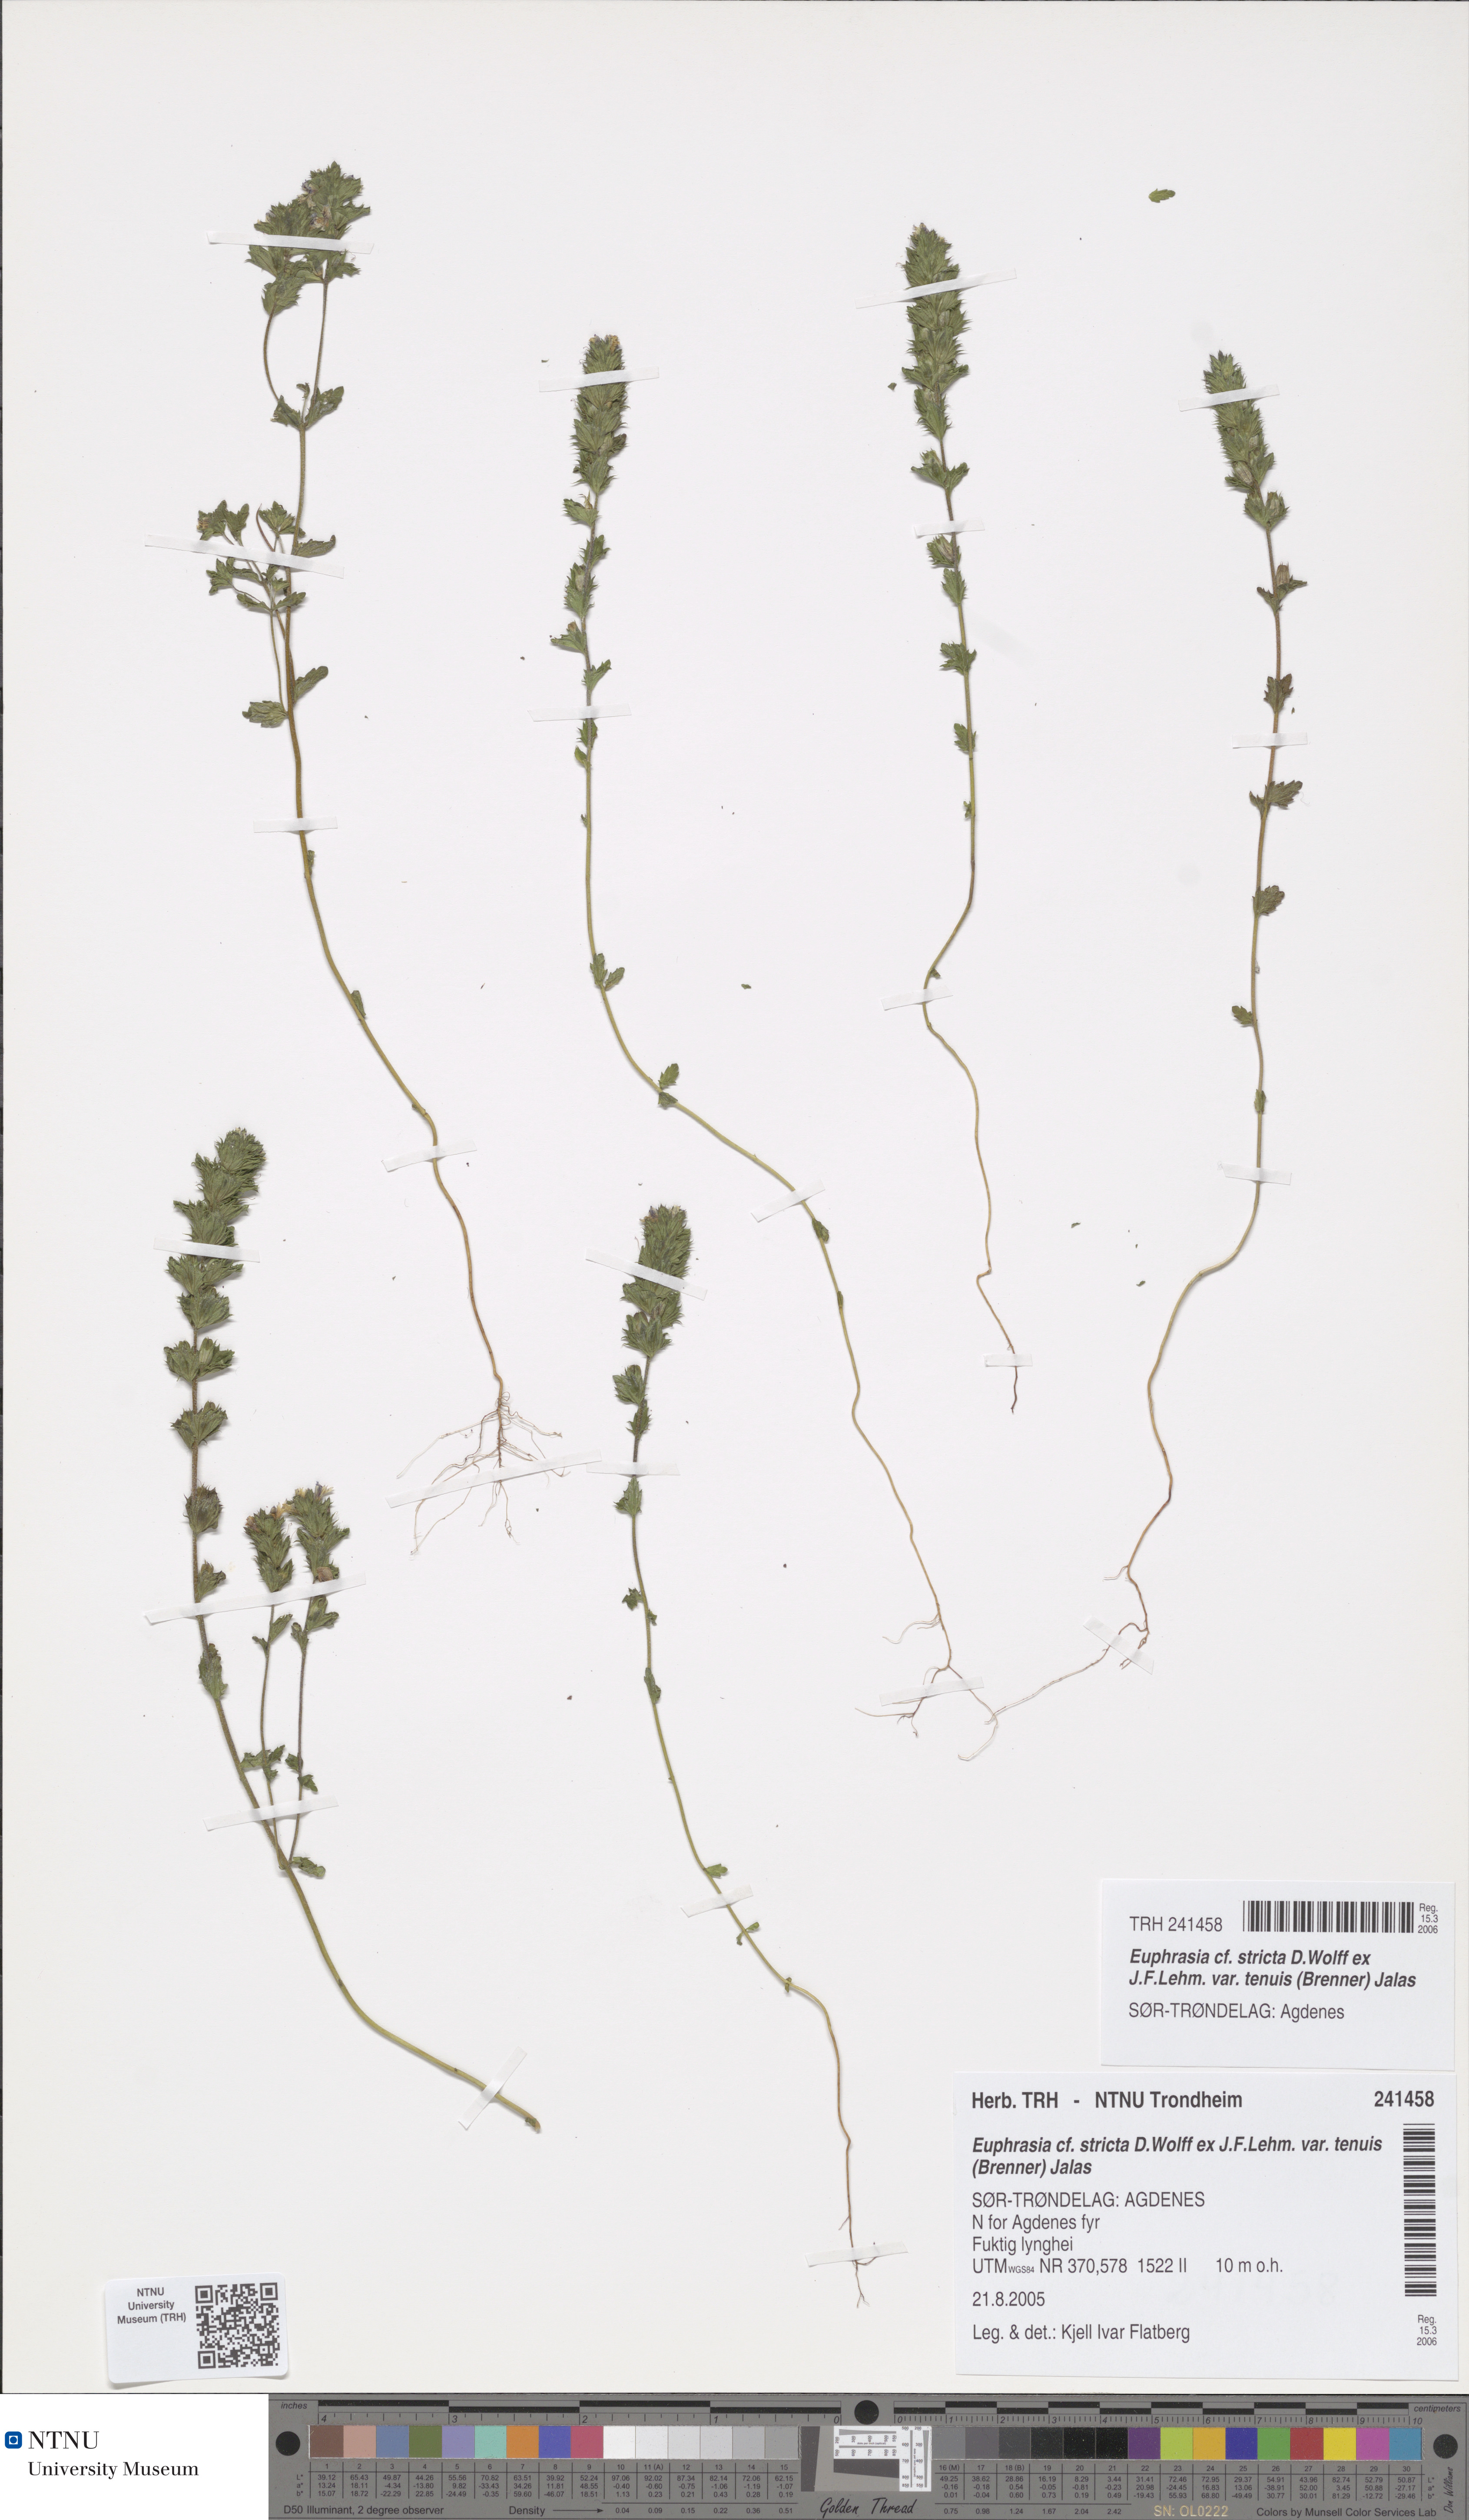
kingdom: Plantae
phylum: Tracheophyta
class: Magnoliopsida
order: Lamiales
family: Orobanchaceae
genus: Euphrasia
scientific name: Euphrasia vernalis
